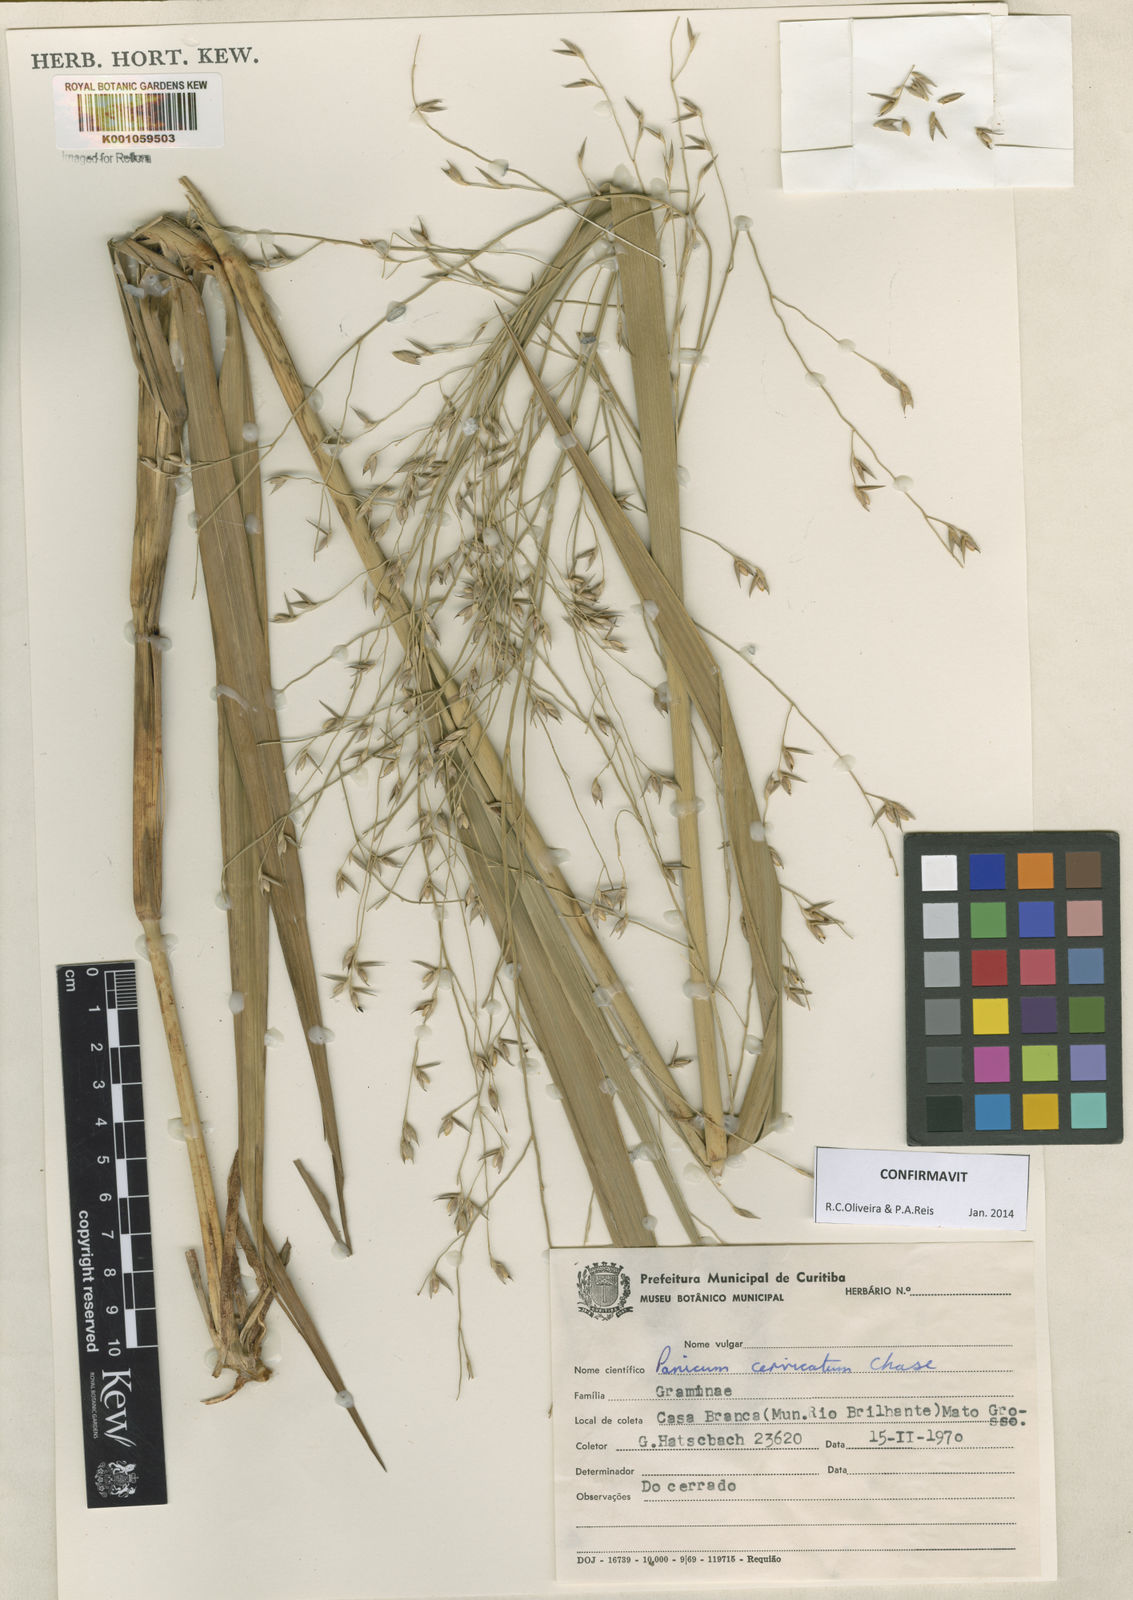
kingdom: Plantae
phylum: Tracheophyta
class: Liliopsida
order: Poales
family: Poaceae
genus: Panicum
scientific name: Panicum cervicatum
